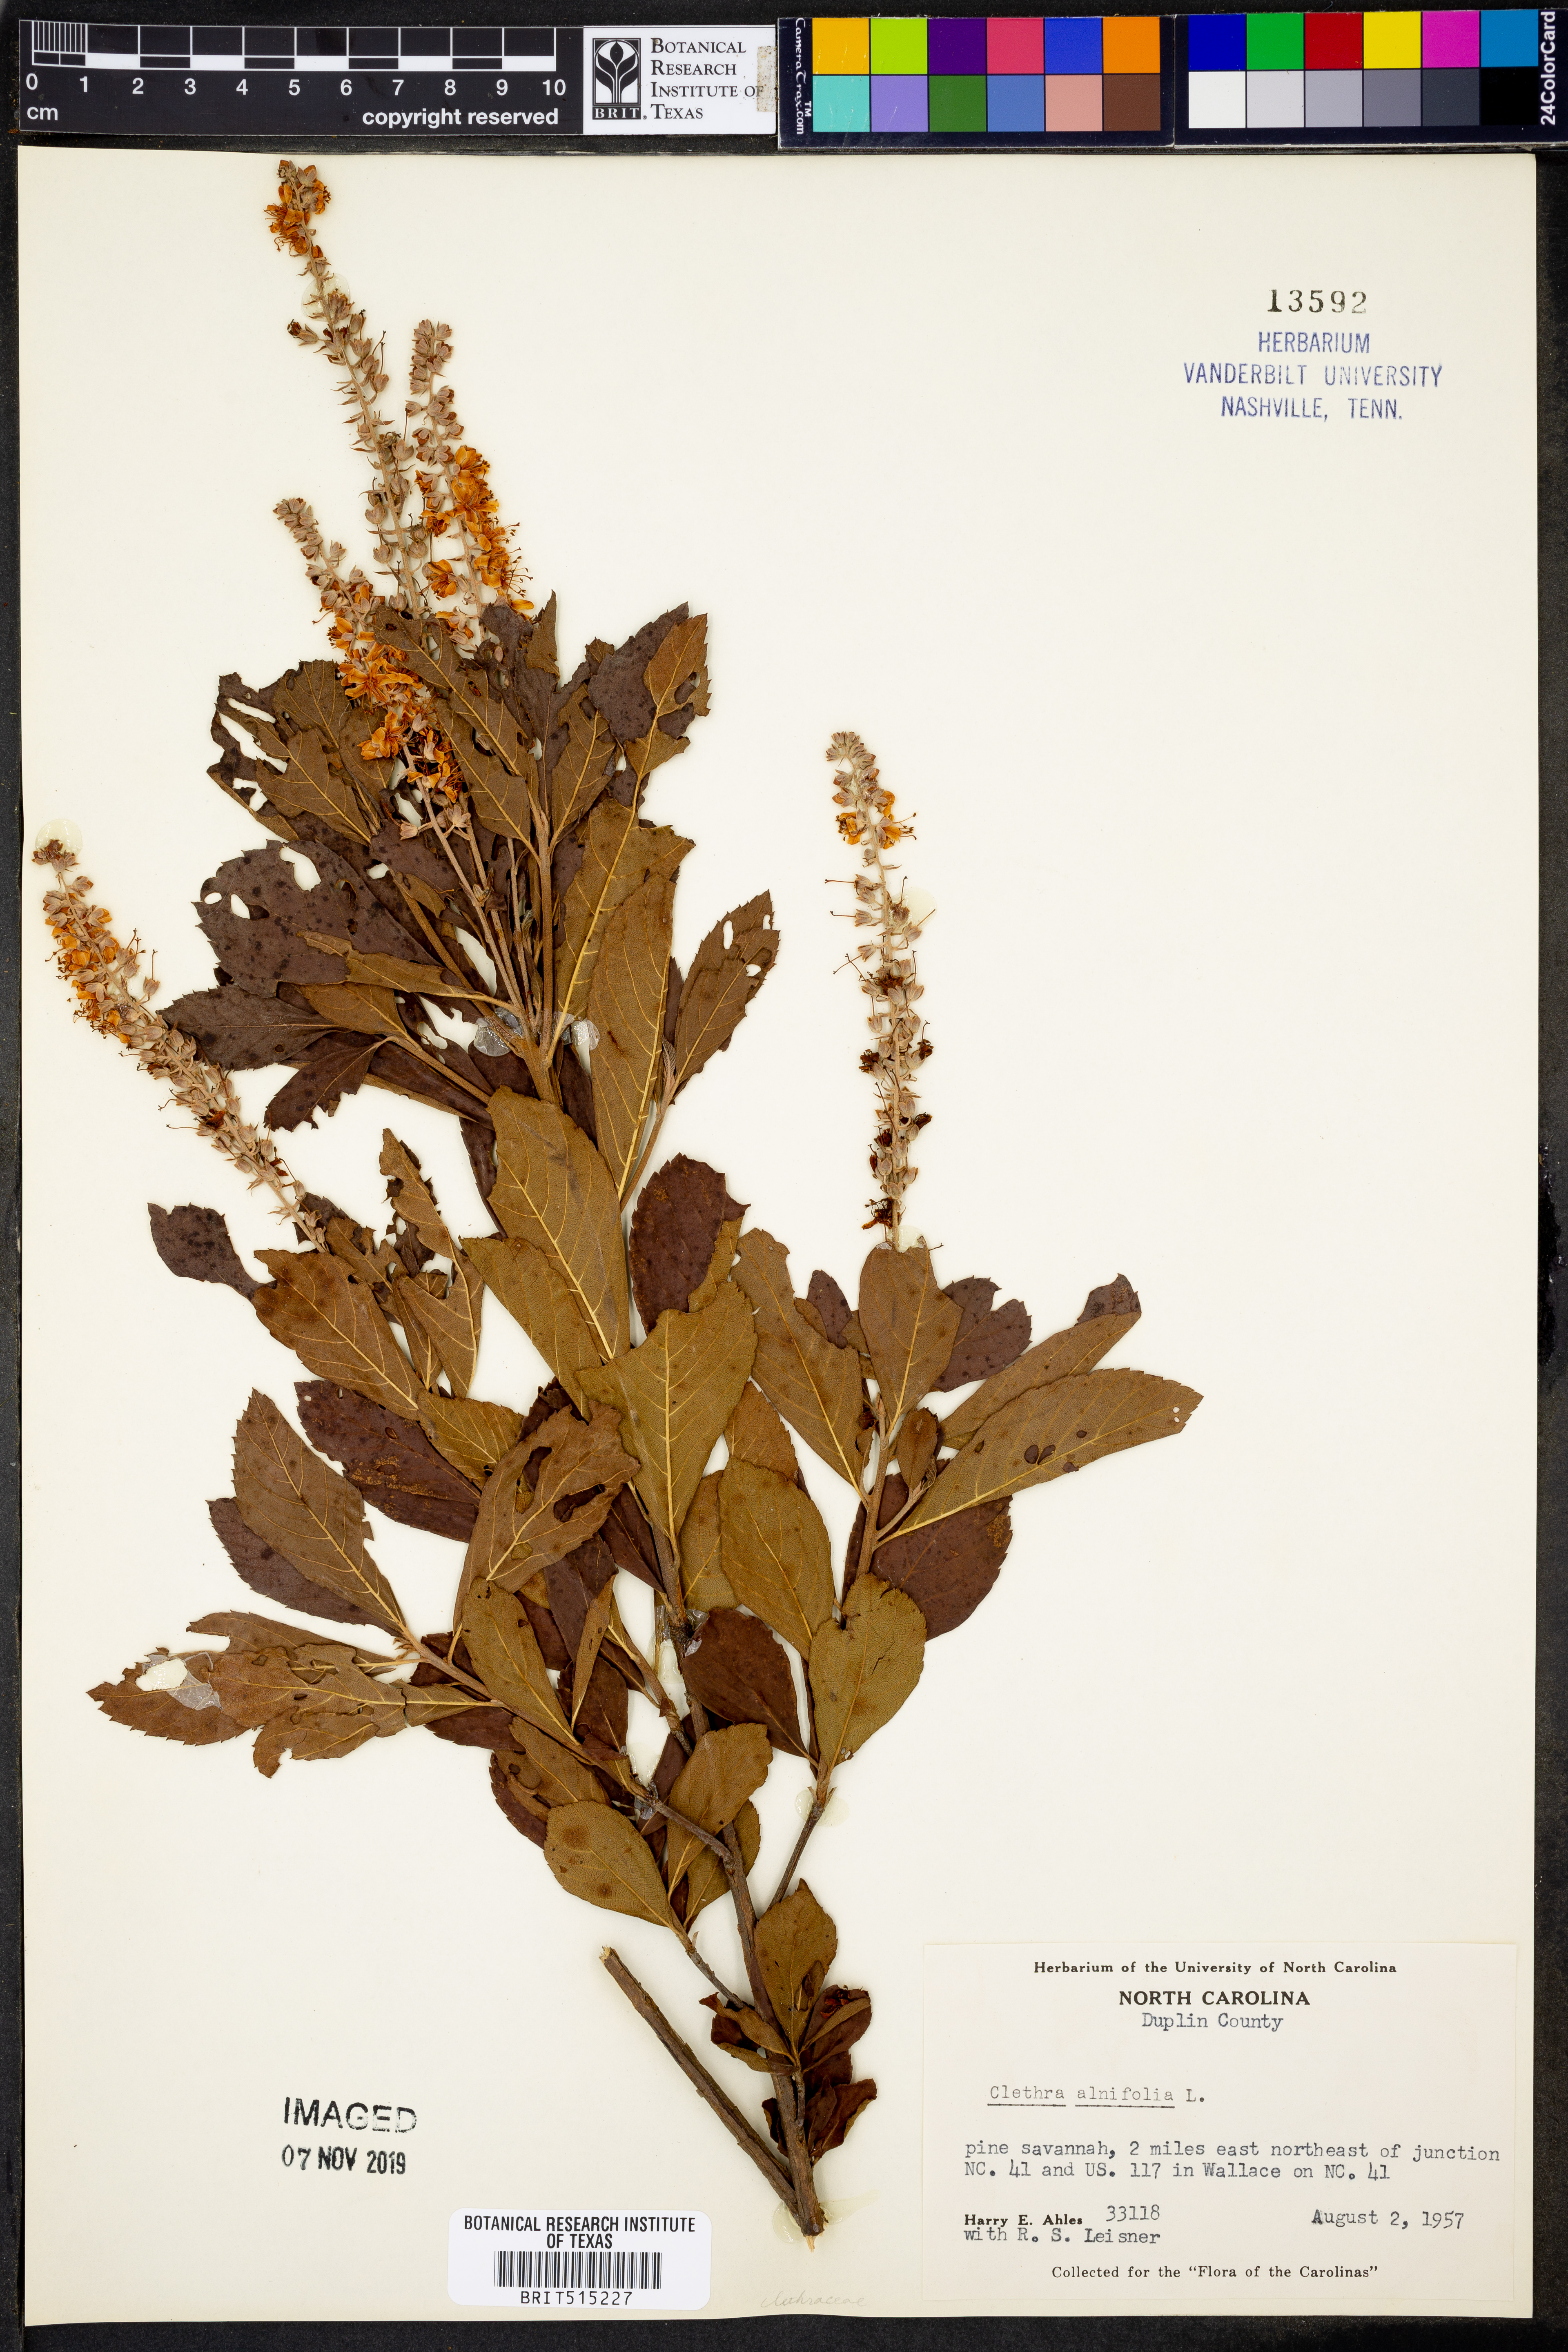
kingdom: Plantae
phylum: Tracheophyta
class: Magnoliopsida
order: Ericales
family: Clethraceae
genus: Clethra
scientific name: Clethra alnifolia
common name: Sweet pepperbush
